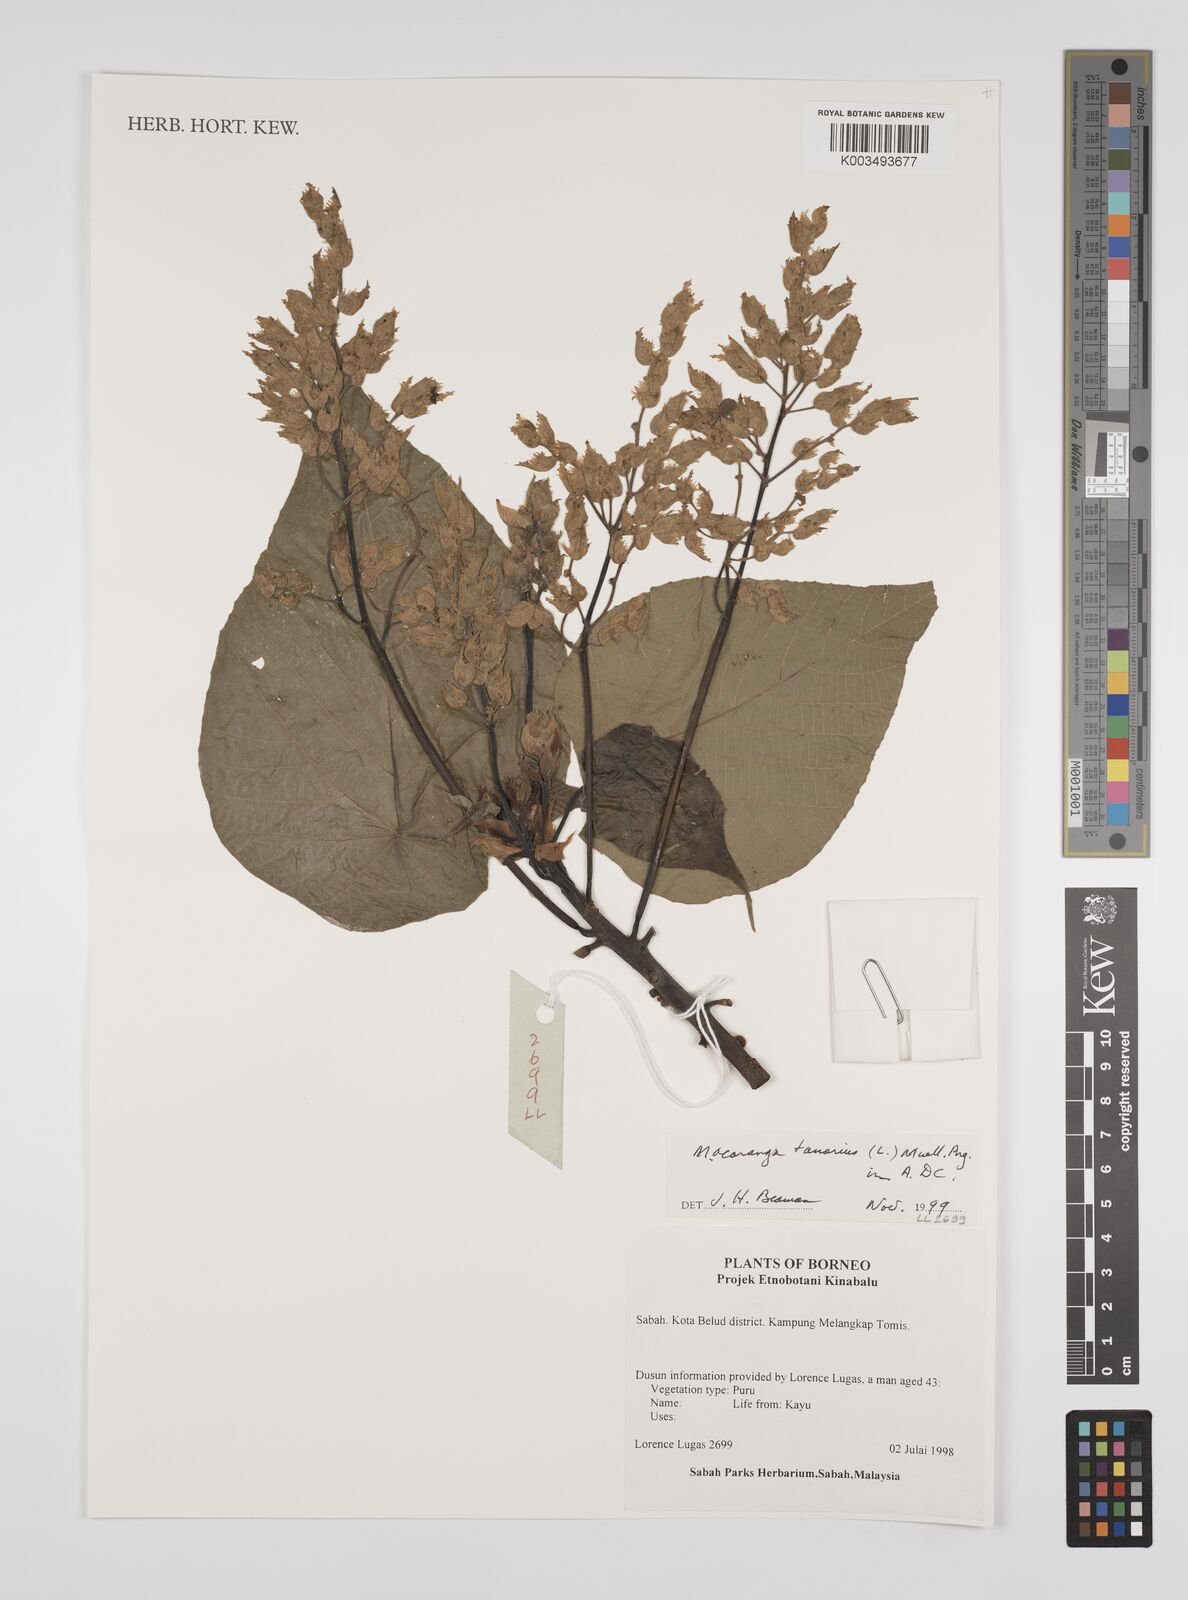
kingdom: Plantae
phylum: Tracheophyta
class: Magnoliopsida
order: Malpighiales
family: Euphorbiaceae
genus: Macaranga
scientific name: Macaranga tanarius
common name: Parasol leaf tree
